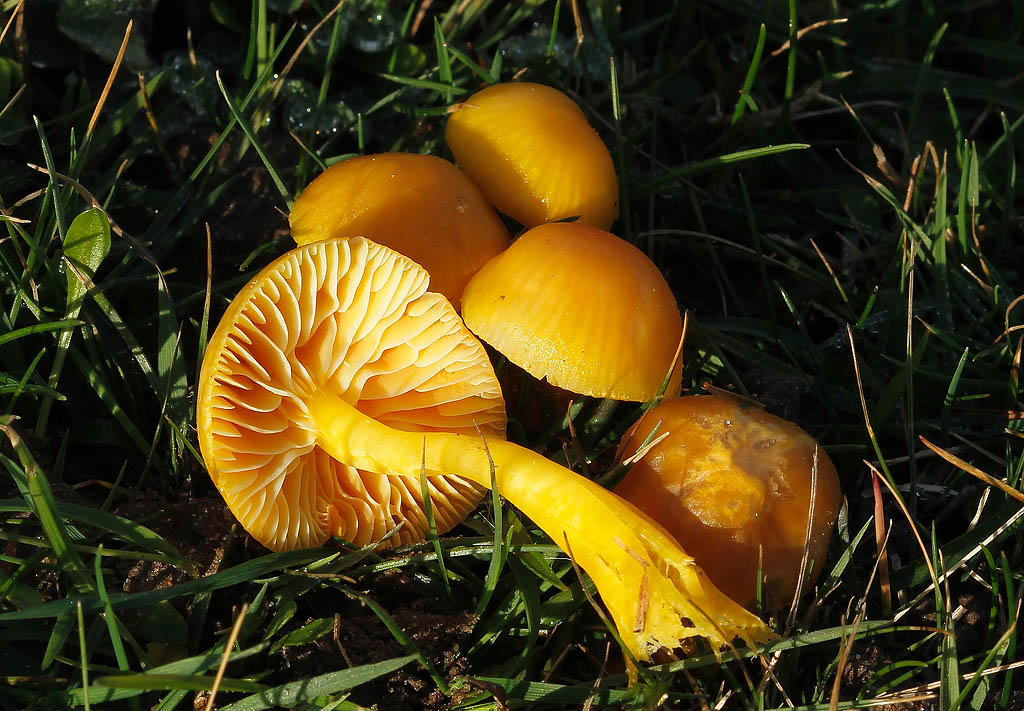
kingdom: Fungi
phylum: Basidiomycota
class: Agaricomycetes
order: Agaricales
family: Hygrophoraceae
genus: Hygrocybe
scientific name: Hygrocybe ceracea
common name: voksgul vokshat
